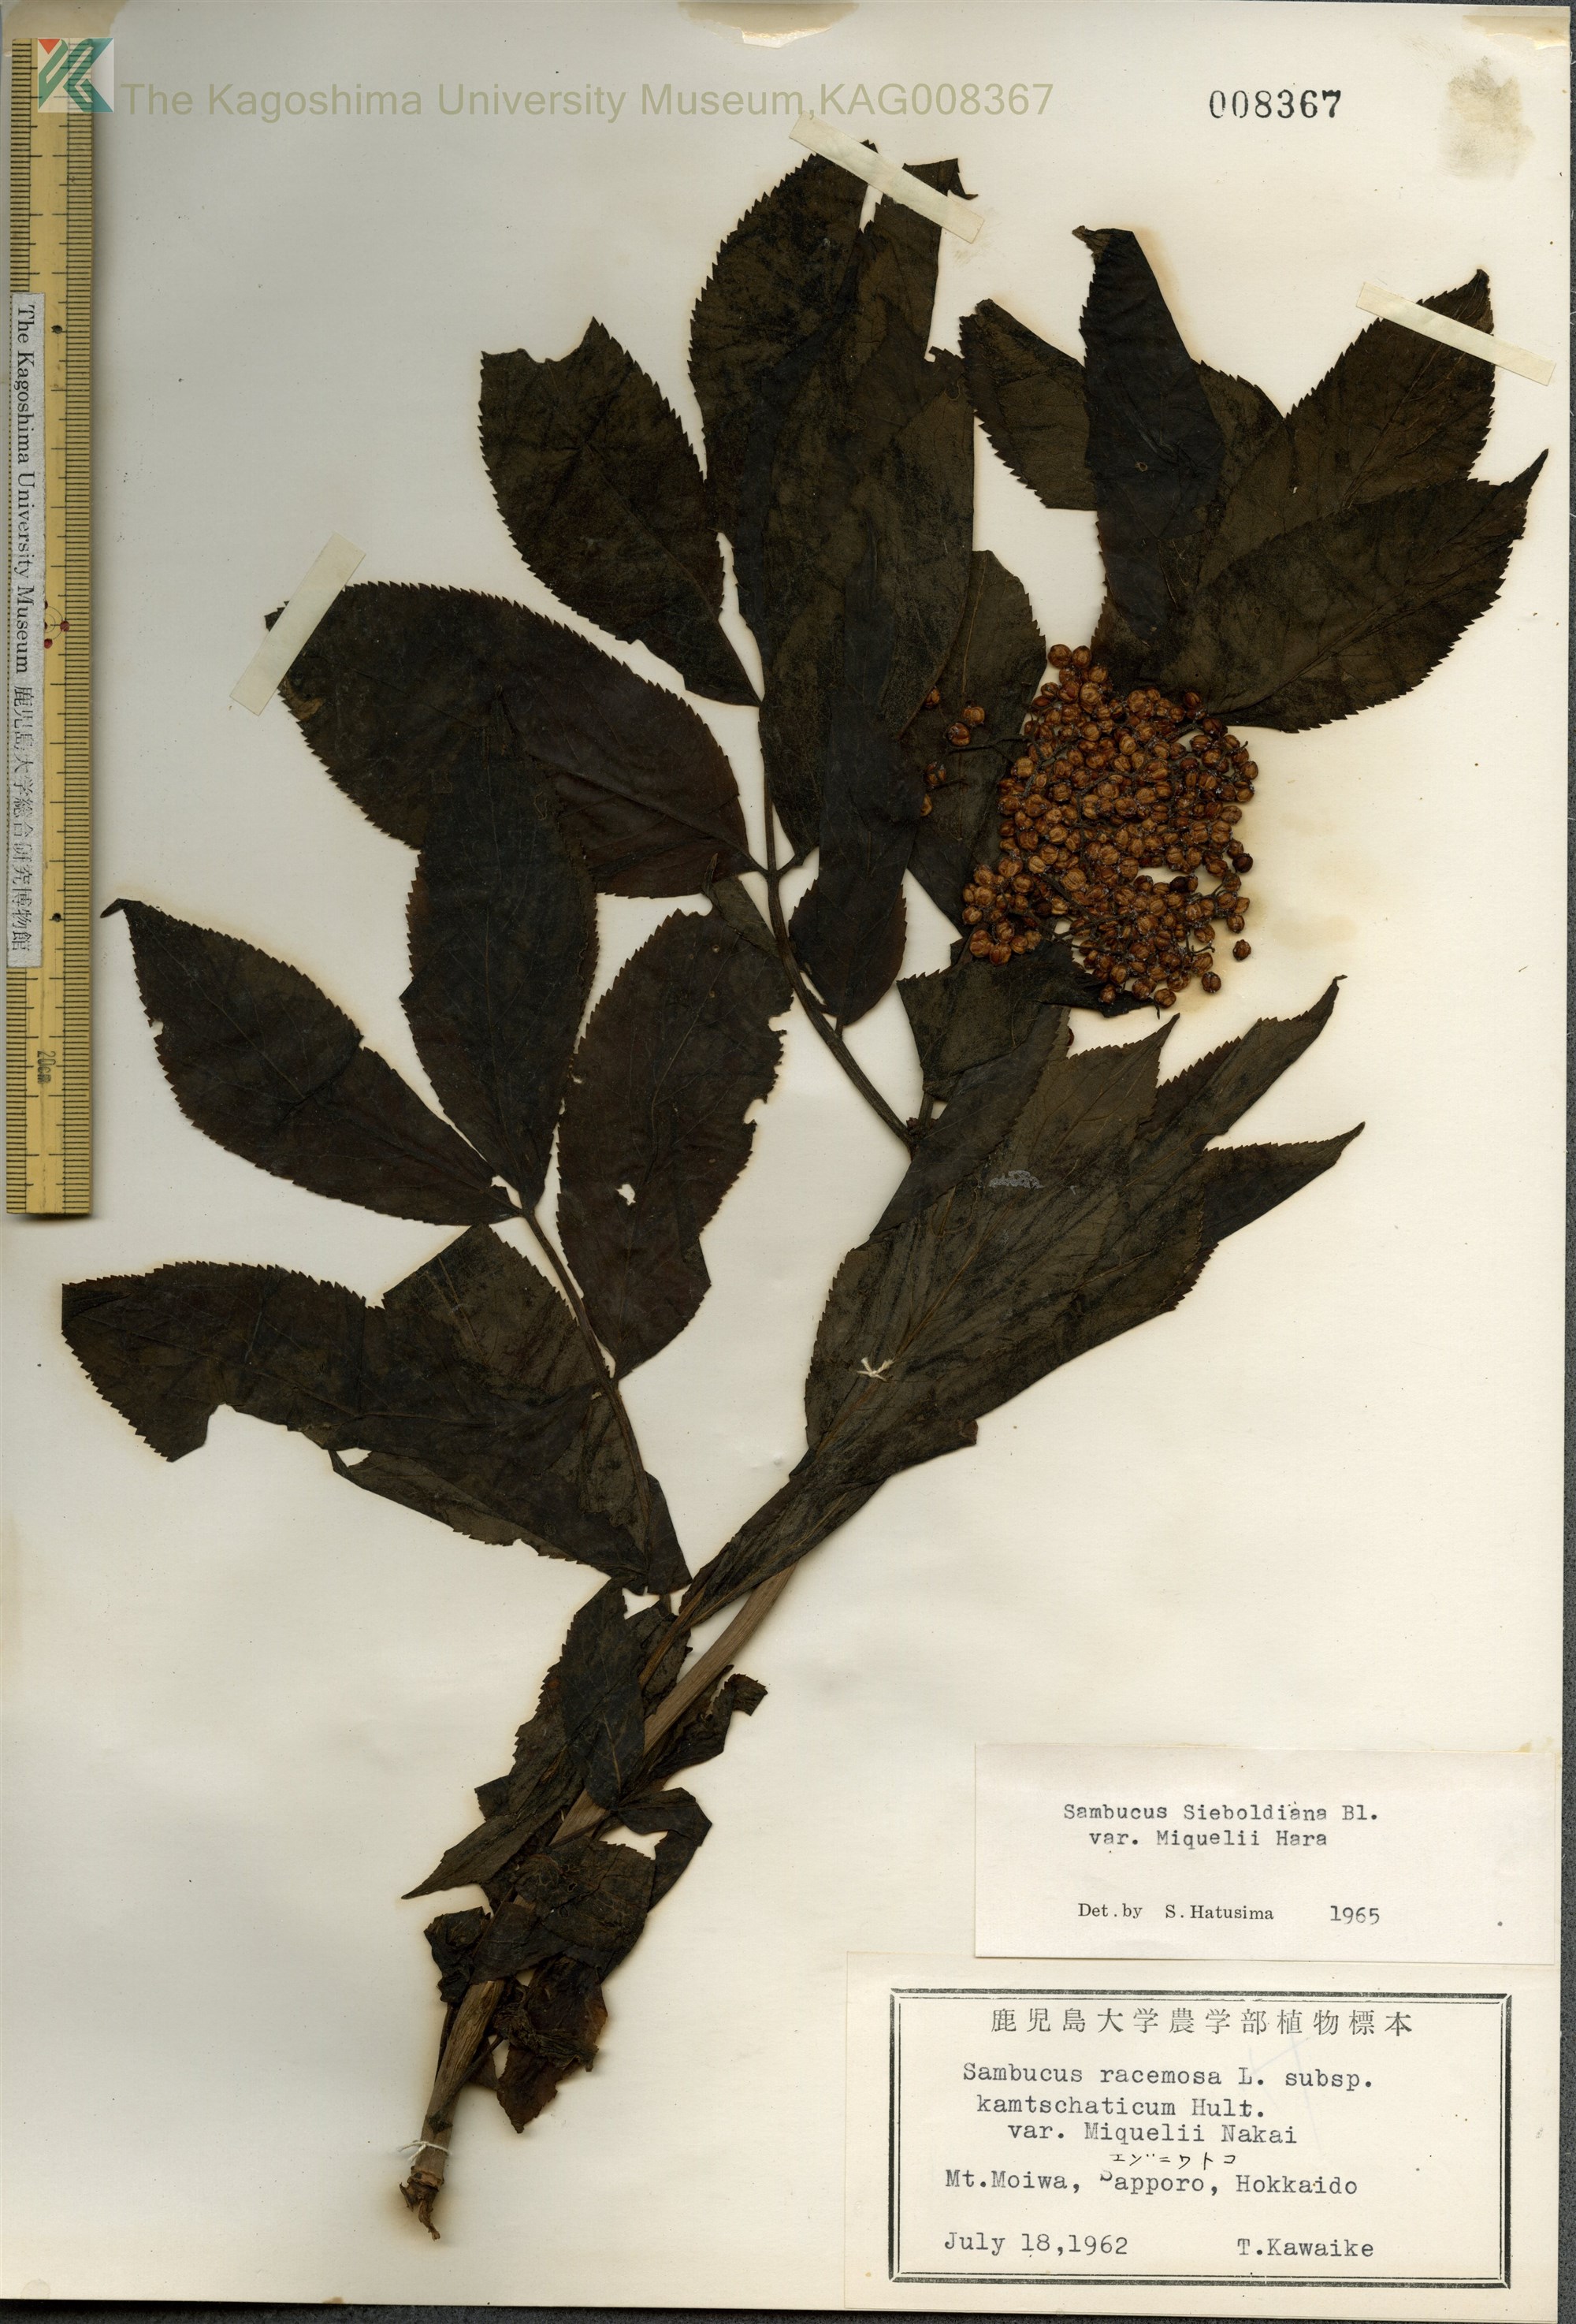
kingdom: Plantae
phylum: Tracheophyta
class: Magnoliopsida
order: Dipsacales
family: Viburnaceae
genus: Sambucus
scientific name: Sambucus kamtschatica
